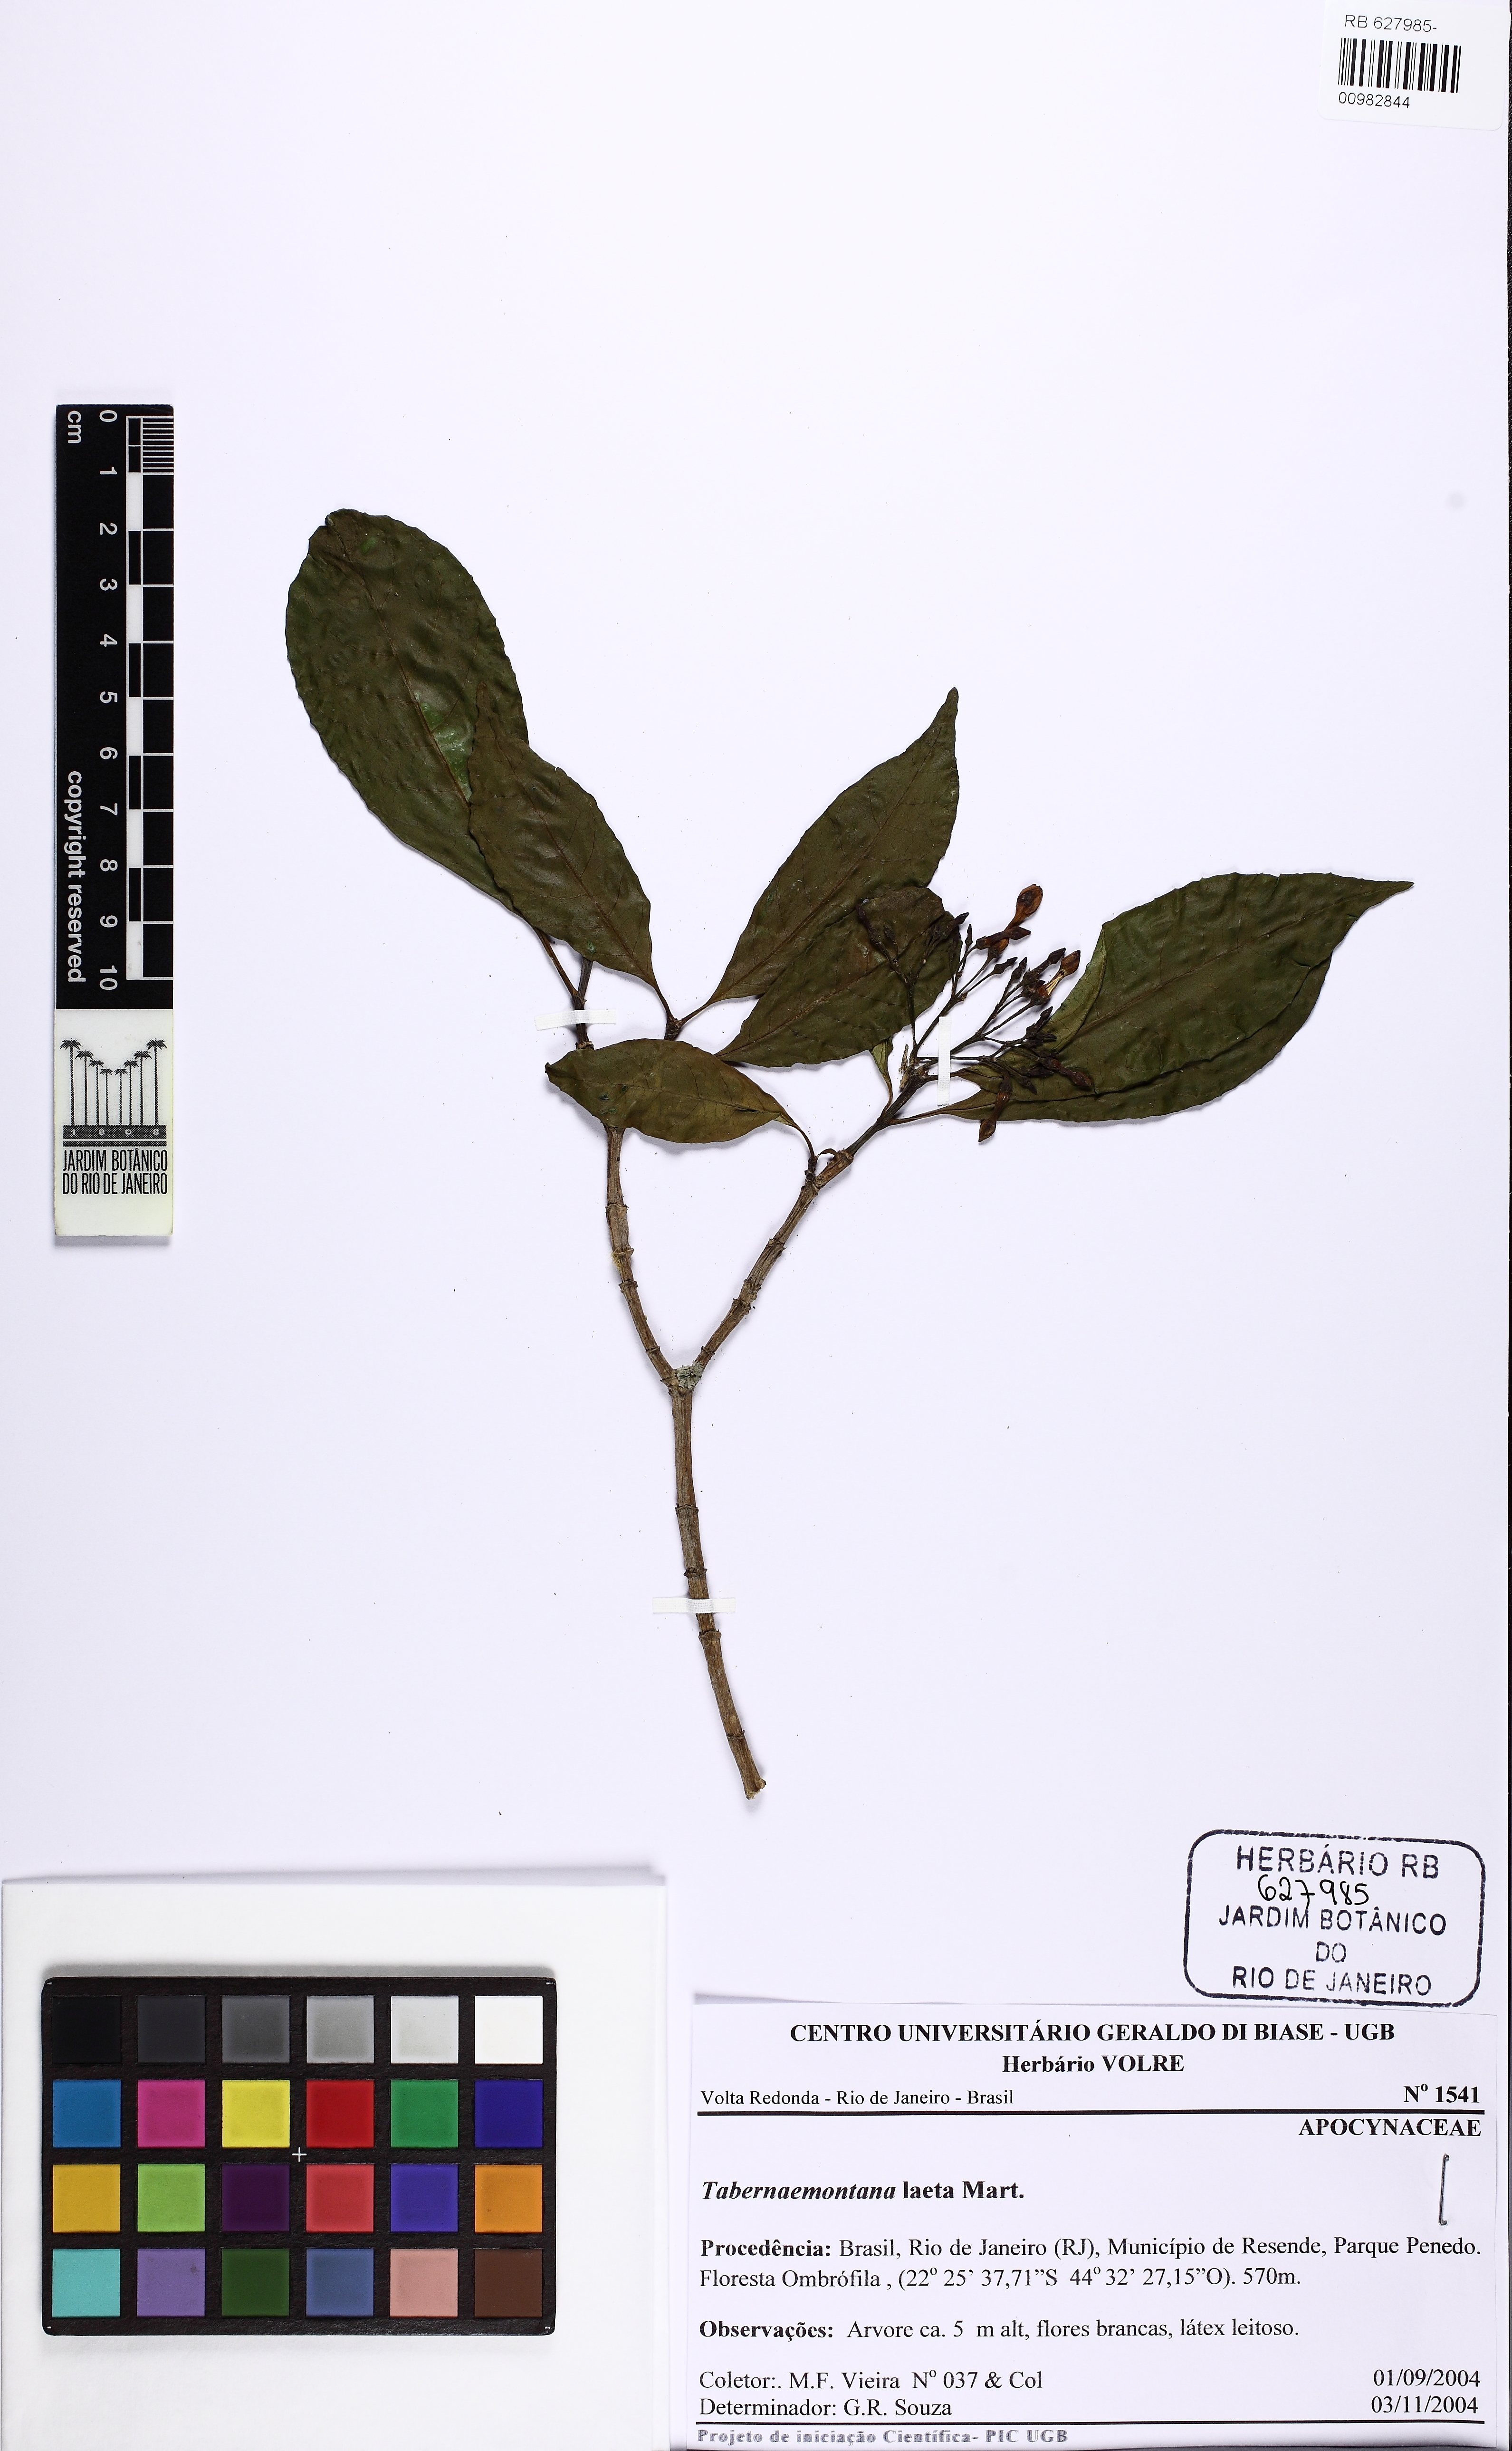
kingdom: Plantae
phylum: Tracheophyta
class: Magnoliopsida
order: Gentianales
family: Apocynaceae
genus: Tabernaemontana
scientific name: Tabernaemontana laeta
